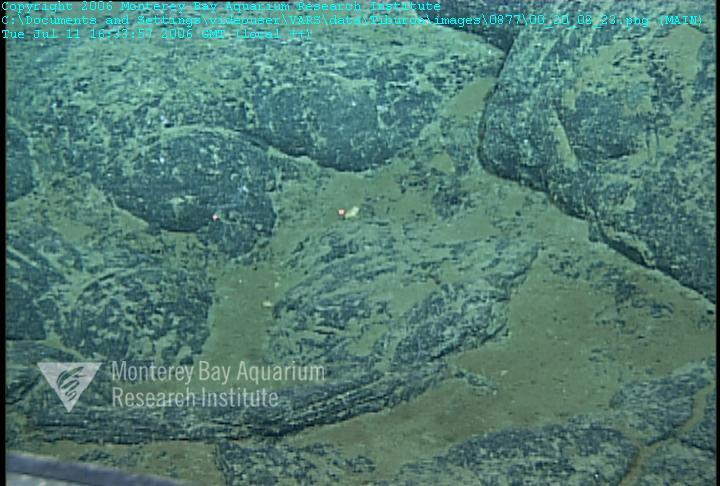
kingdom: Animalia
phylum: Porifera
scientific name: Porifera
